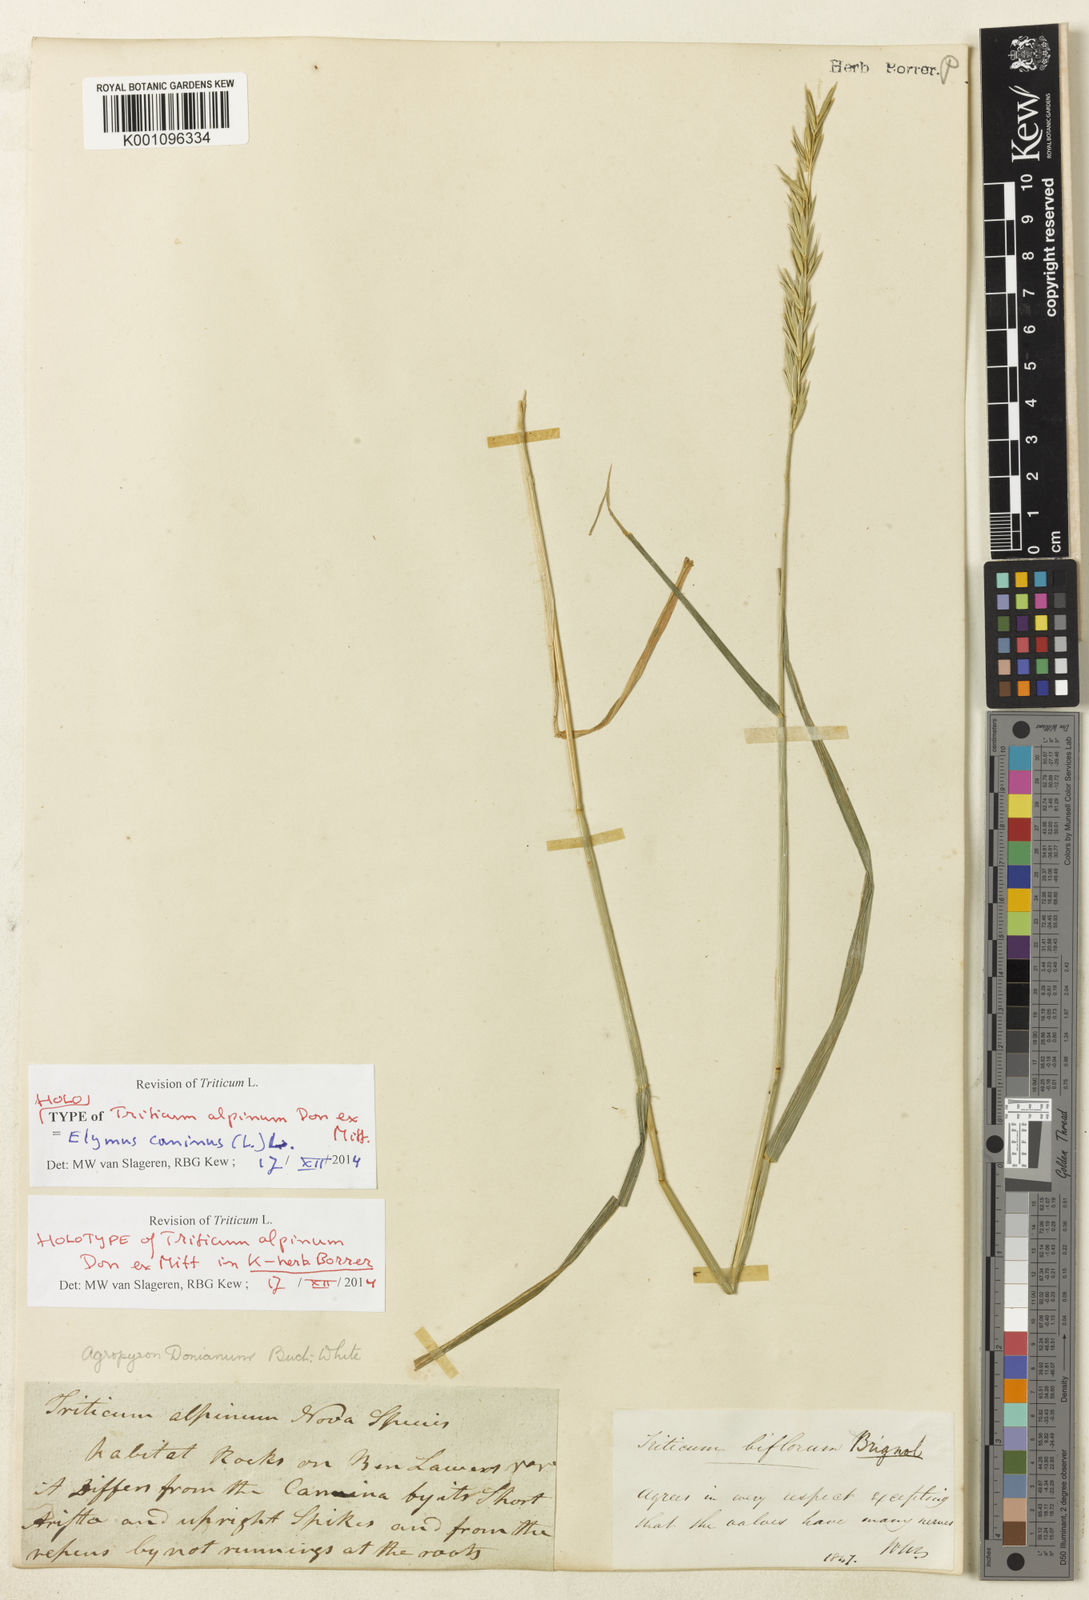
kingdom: Plantae
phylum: Tracheophyta
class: Liliopsida
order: Poales
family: Poaceae
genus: Elymus
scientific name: Elymus caninus
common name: Bearded couch
